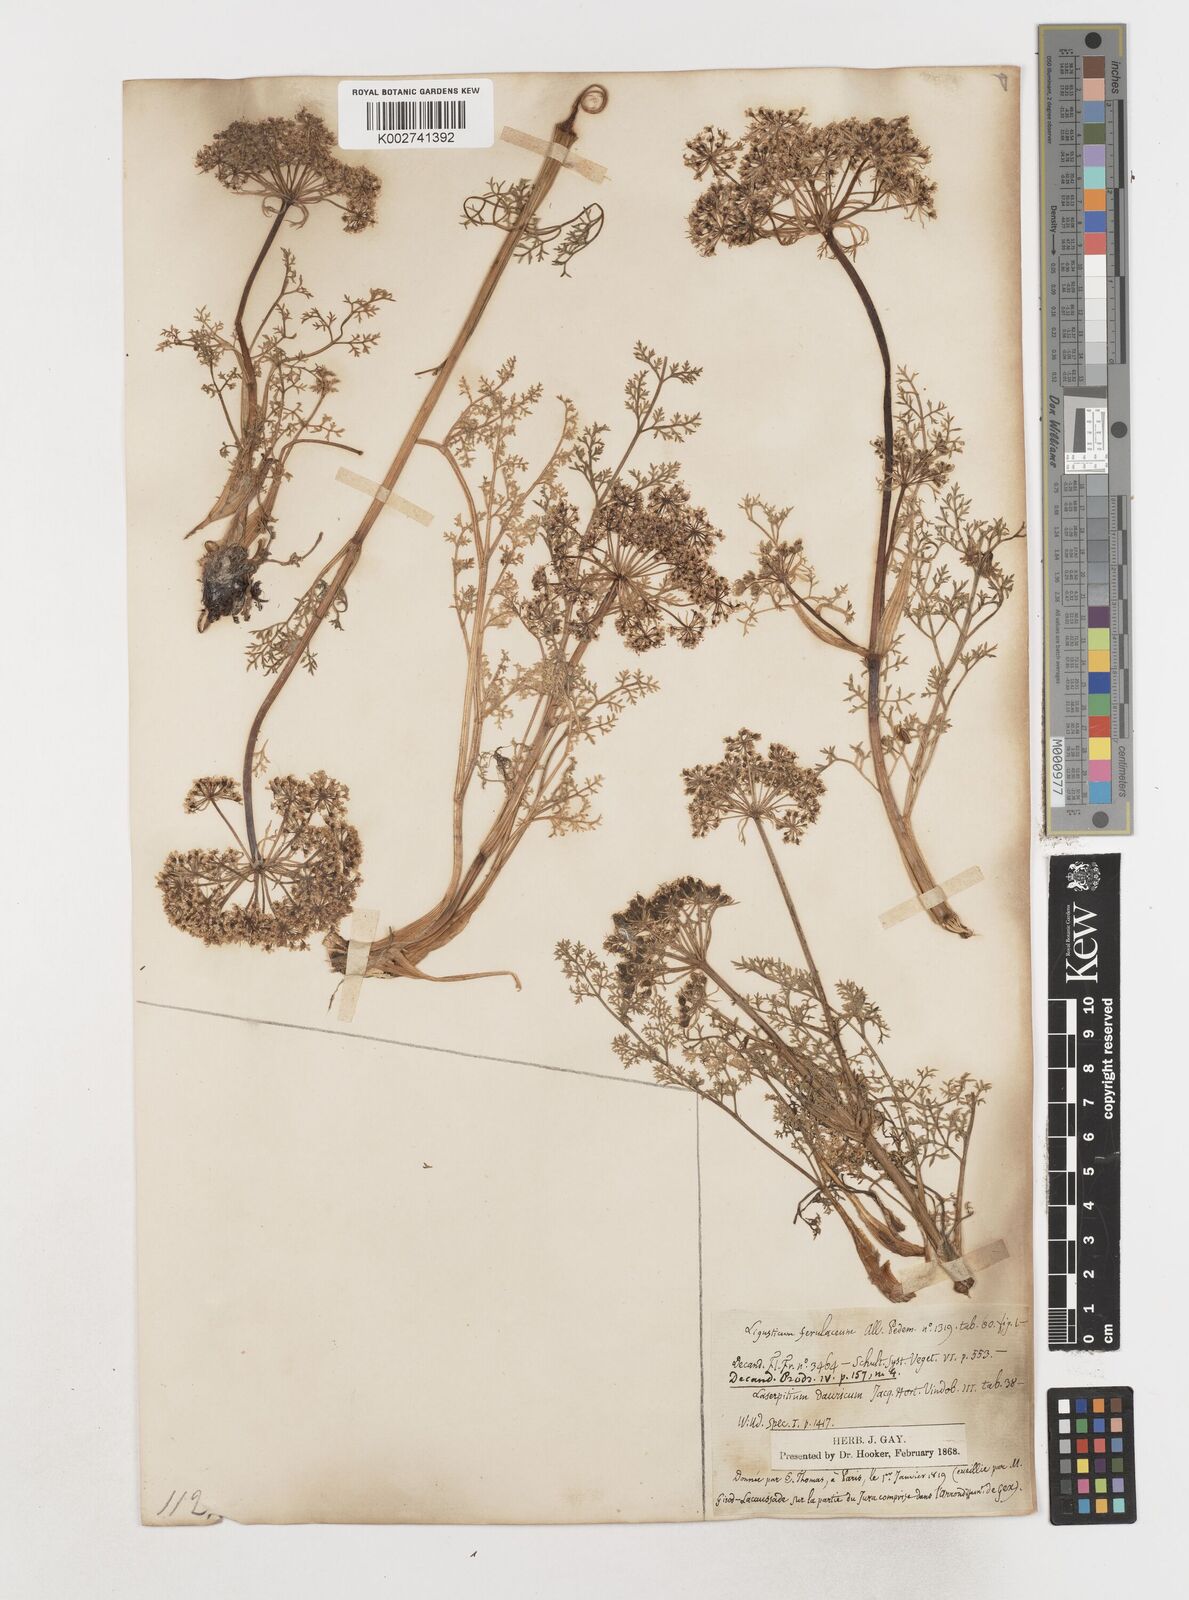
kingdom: Plantae
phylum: Tracheophyta
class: Magnoliopsida
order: Apiales
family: Apiaceae
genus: Coristospermum
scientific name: Coristospermum ferulaceum
